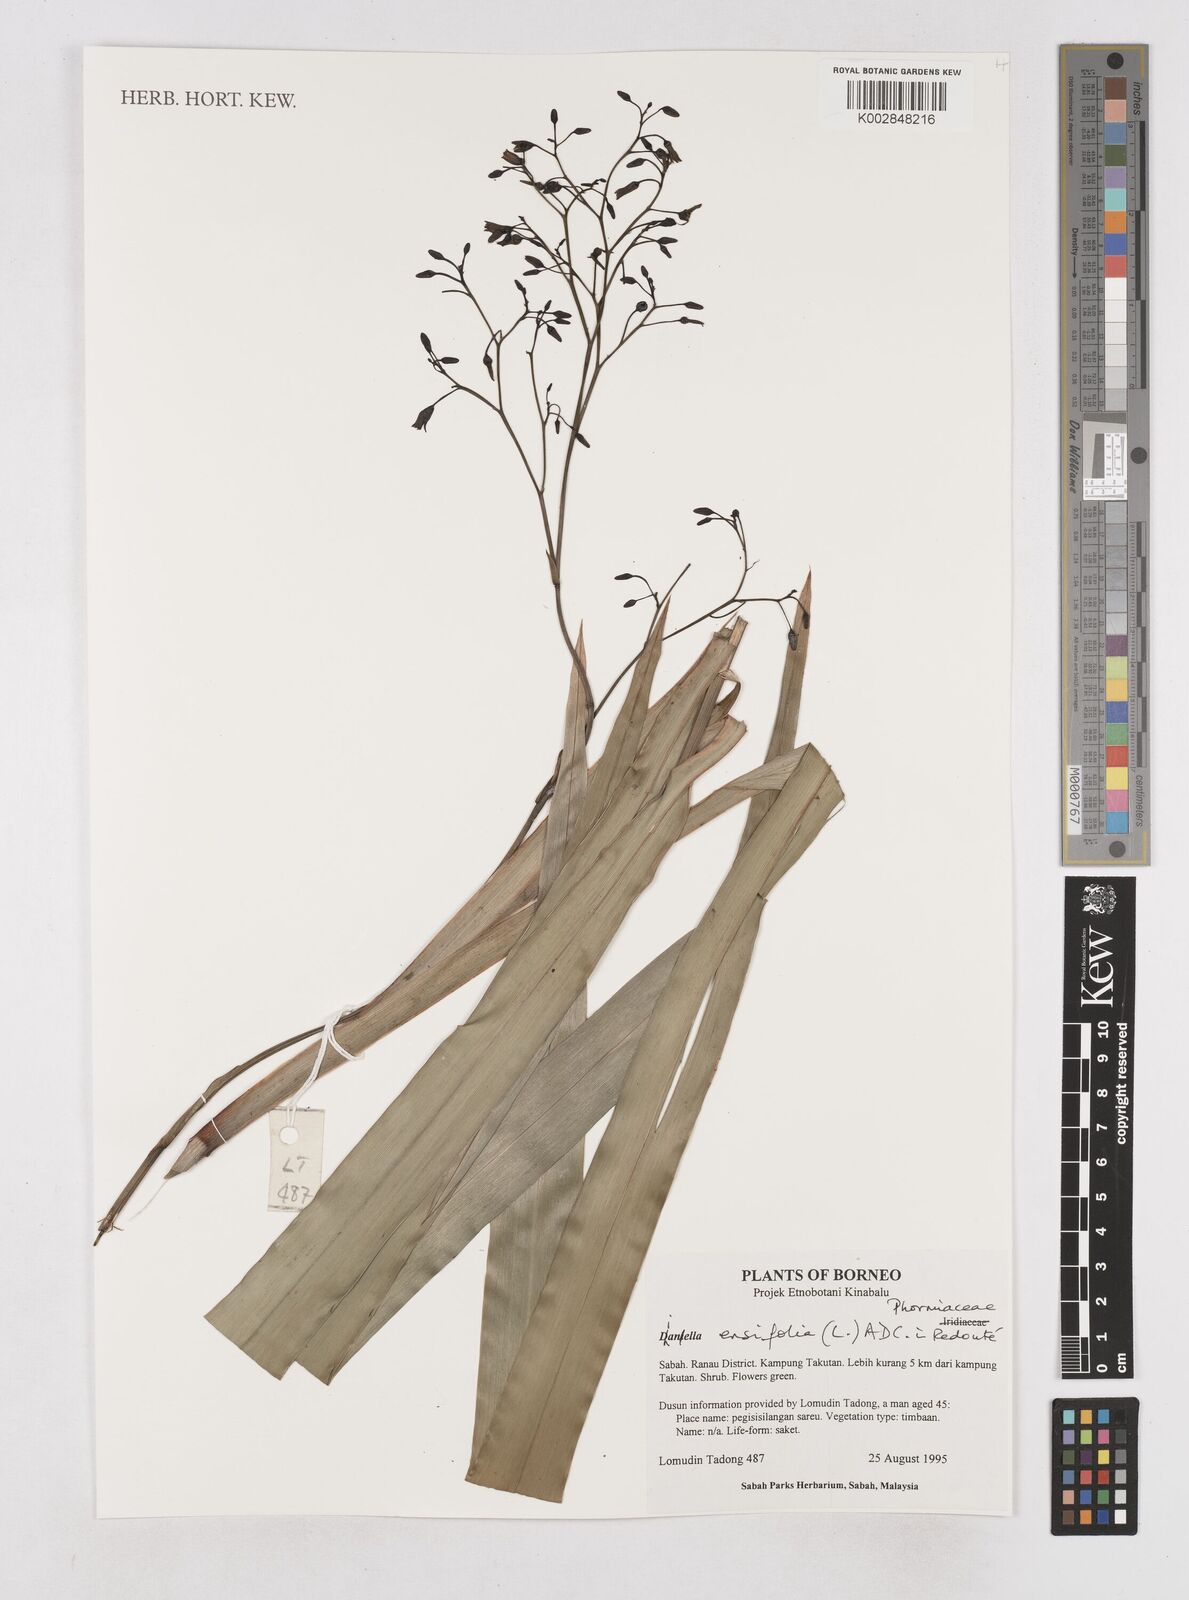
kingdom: Plantae
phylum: Tracheophyta
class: Liliopsida
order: Asparagales
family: Asphodelaceae
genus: Dianella
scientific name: Dianella ensifolia
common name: New zealand lilyplant
